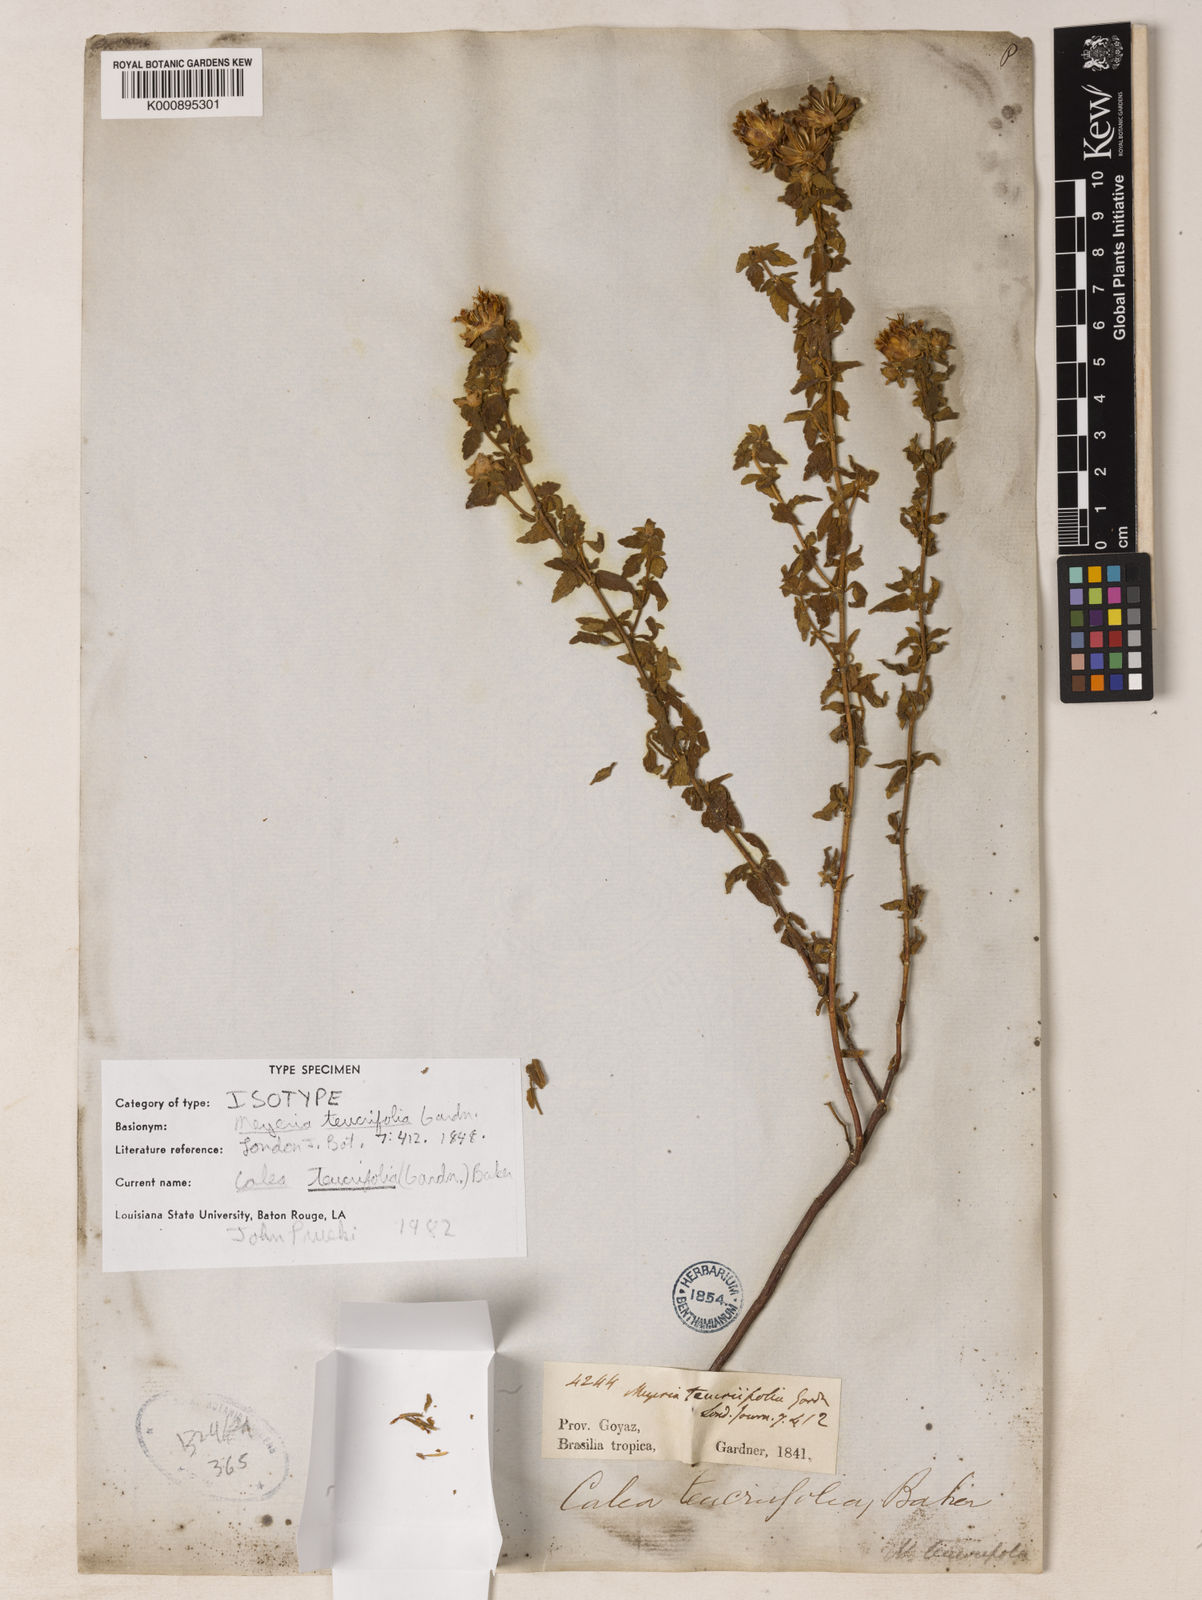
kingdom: Plantae
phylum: Tracheophyta
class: Magnoliopsida
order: Asterales
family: Asteraceae
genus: Calea
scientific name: Calea teucriifolia
